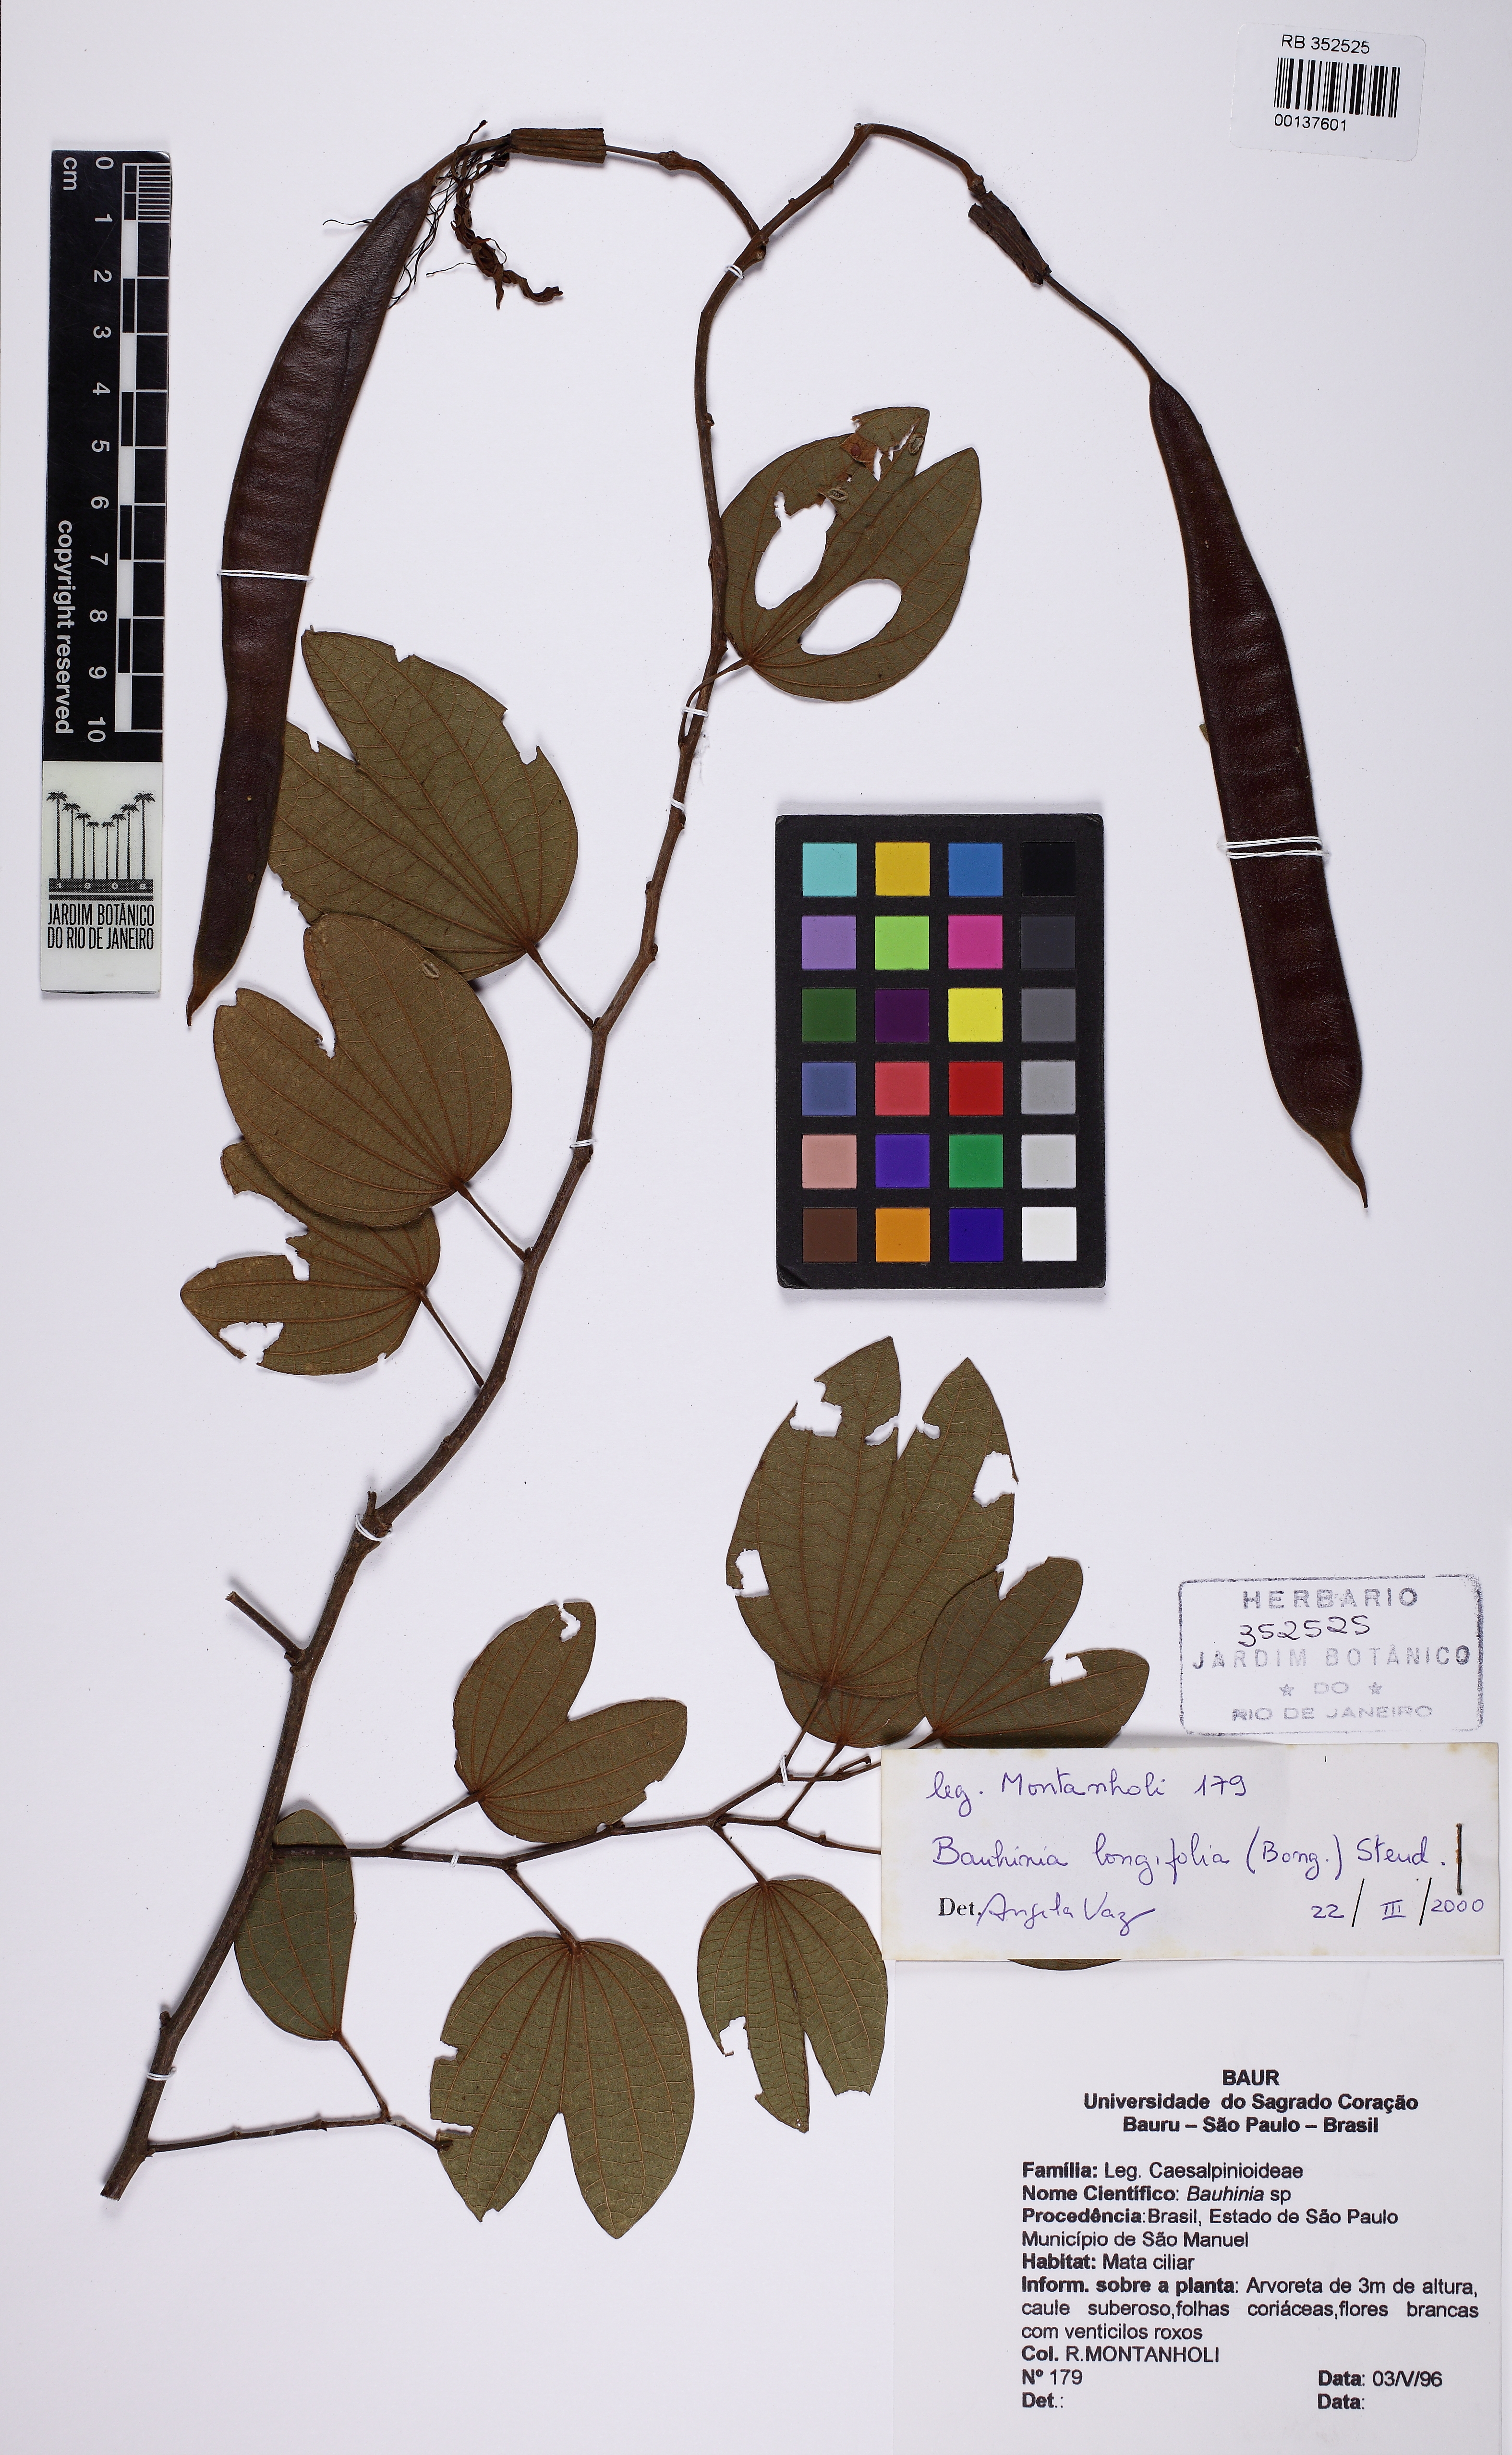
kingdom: Plantae
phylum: Tracheophyta
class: Magnoliopsida
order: Fabales
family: Fabaceae
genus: Bauhinia
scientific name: Bauhinia longifolia
